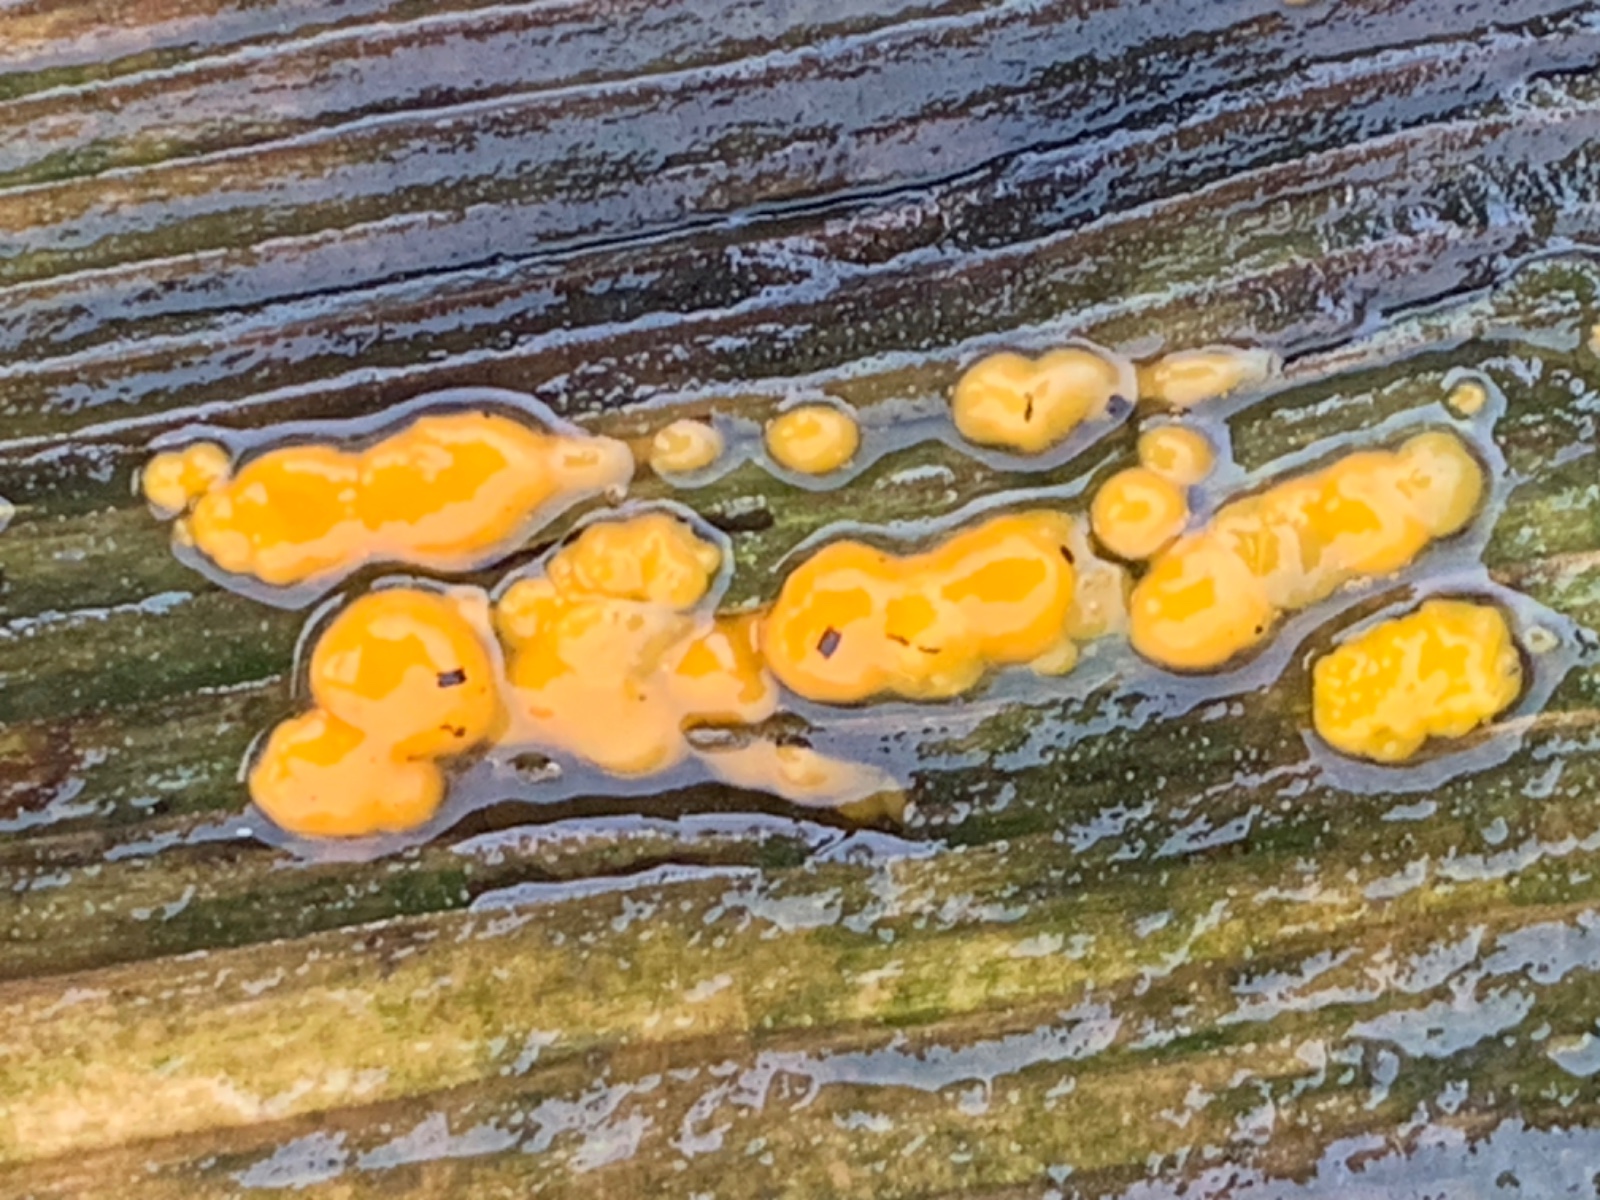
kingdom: Fungi
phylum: Basidiomycota
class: Dacrymycetes
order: Dacrymycetales
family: Dacrymycetaceae
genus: Dacrymyces
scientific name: Dacrymyces stillatus
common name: almindelig tåresvamp
